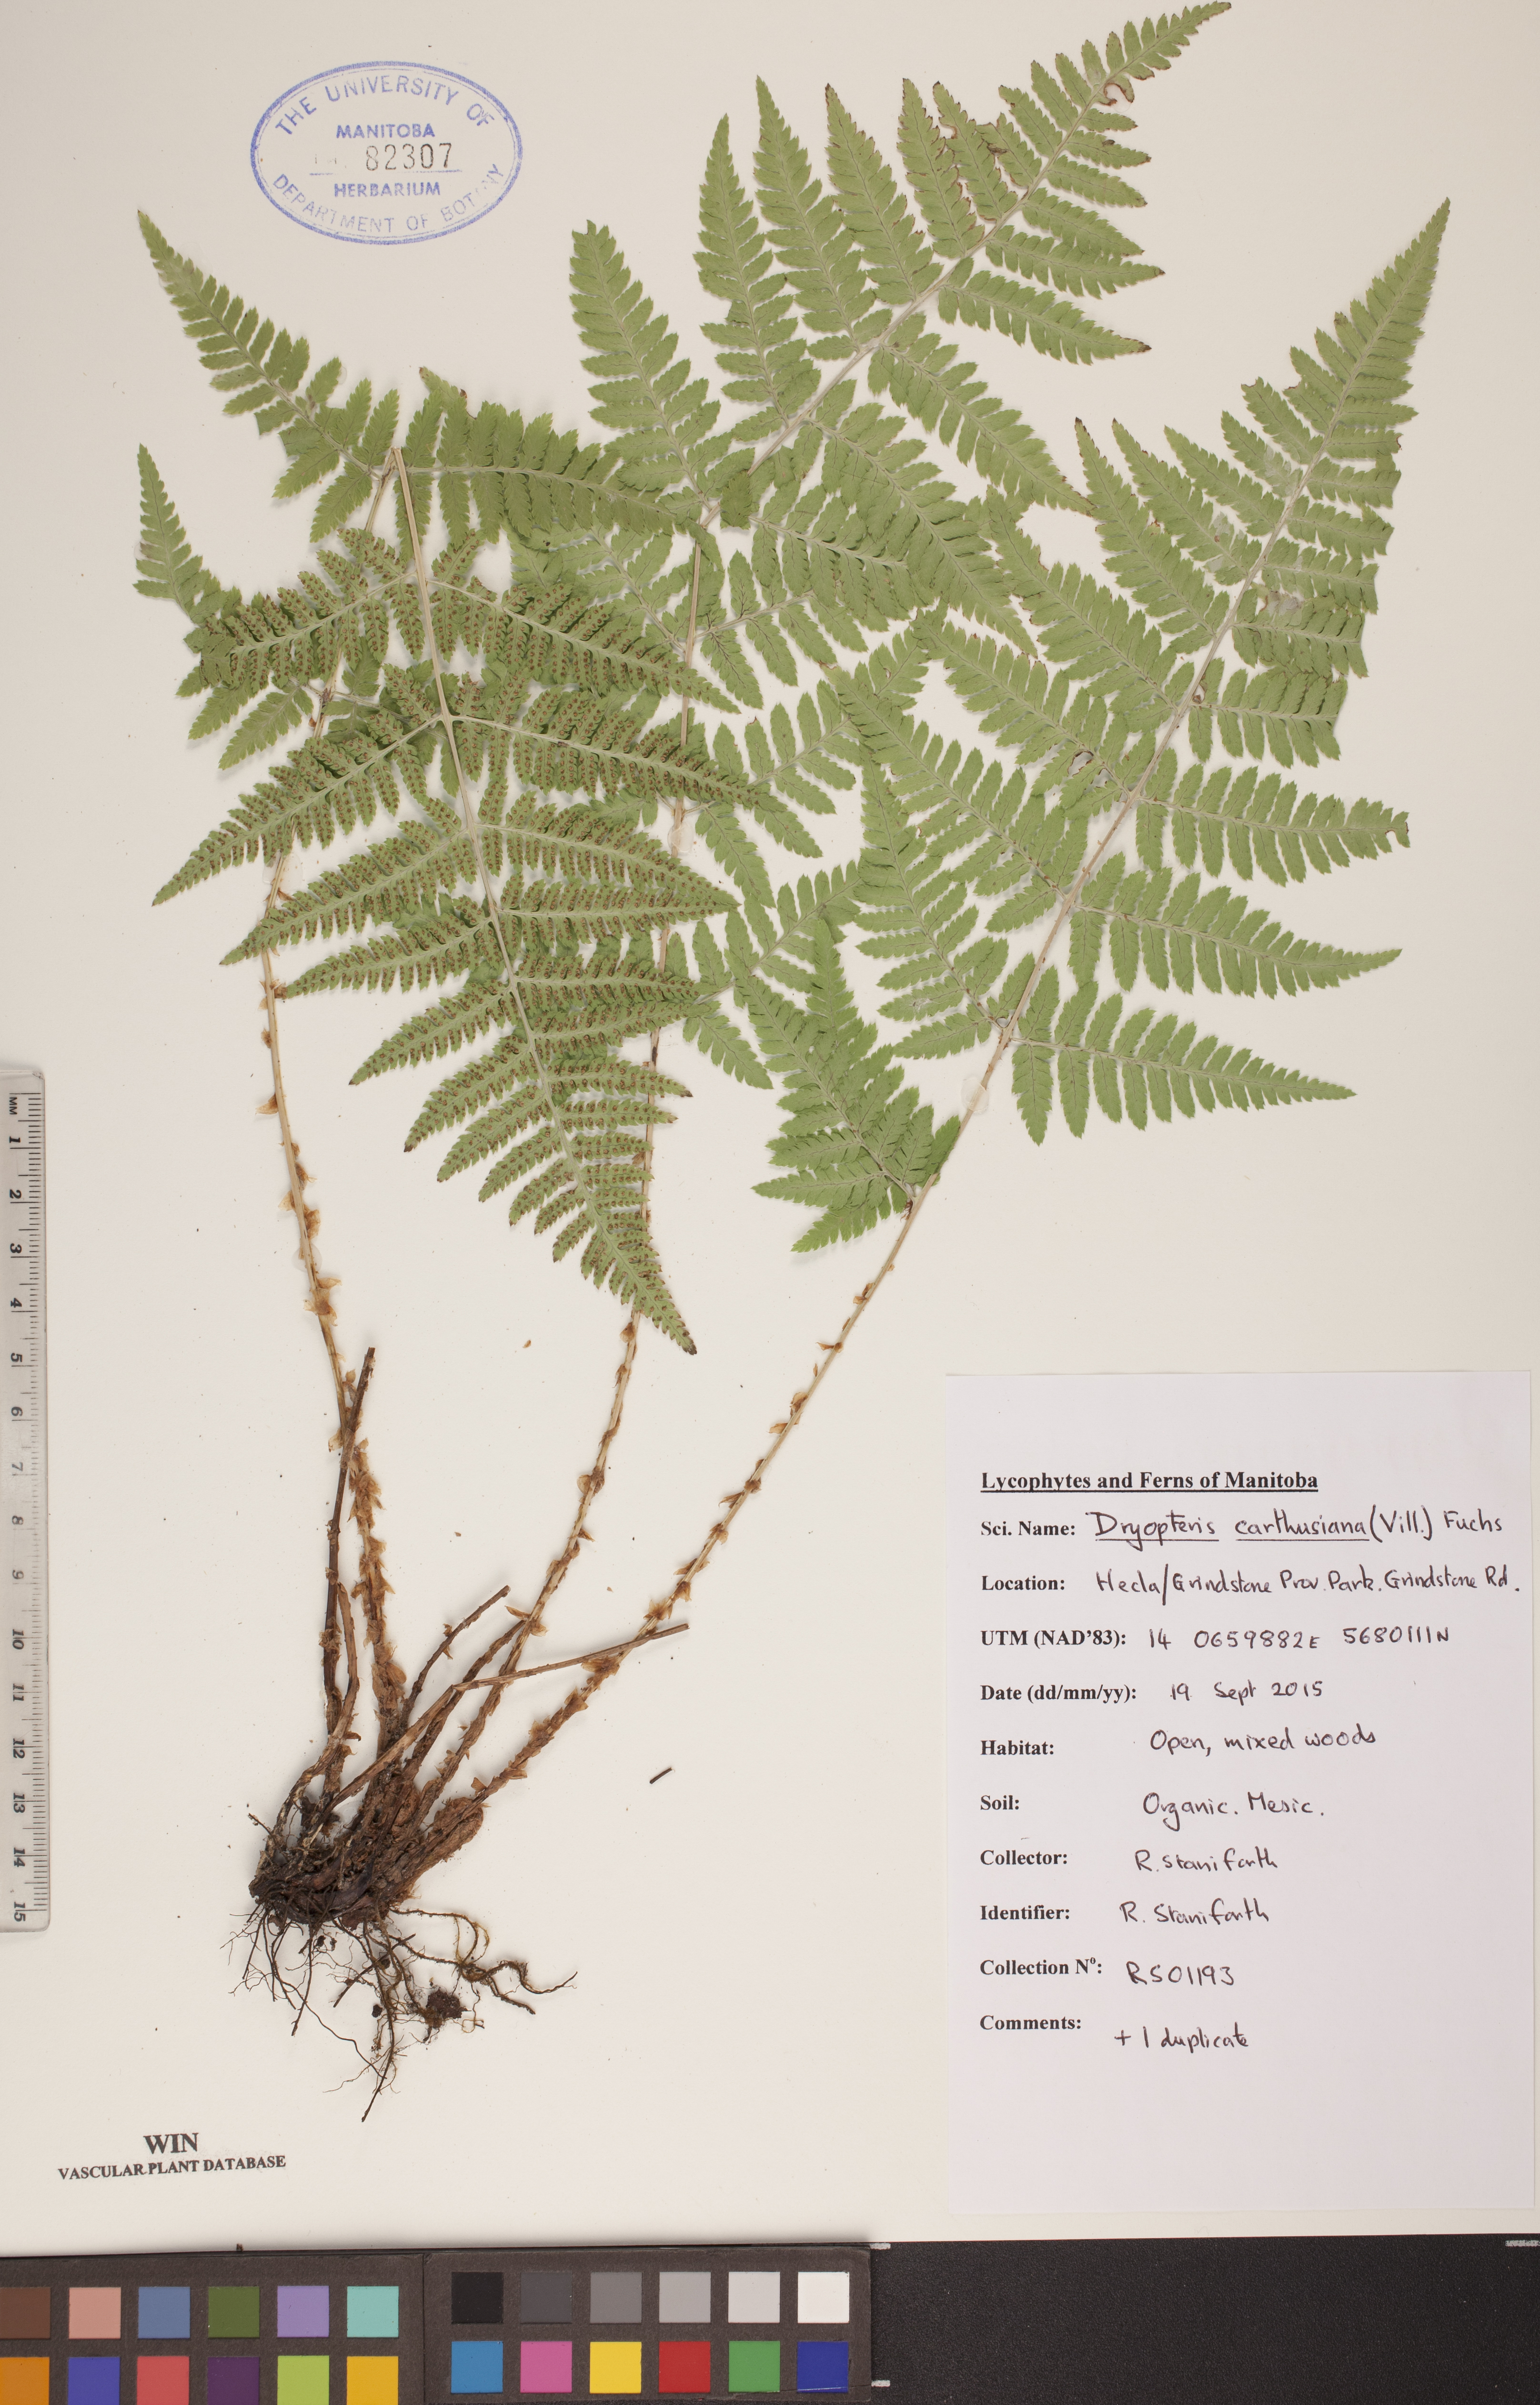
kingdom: Plantae
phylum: Tracheophyta
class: Polypodiopsida
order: Polypodiales
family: Dryopteridaceae
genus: Dryopteris
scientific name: Dryopteris carthusiana
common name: Narrow buckler-fern
